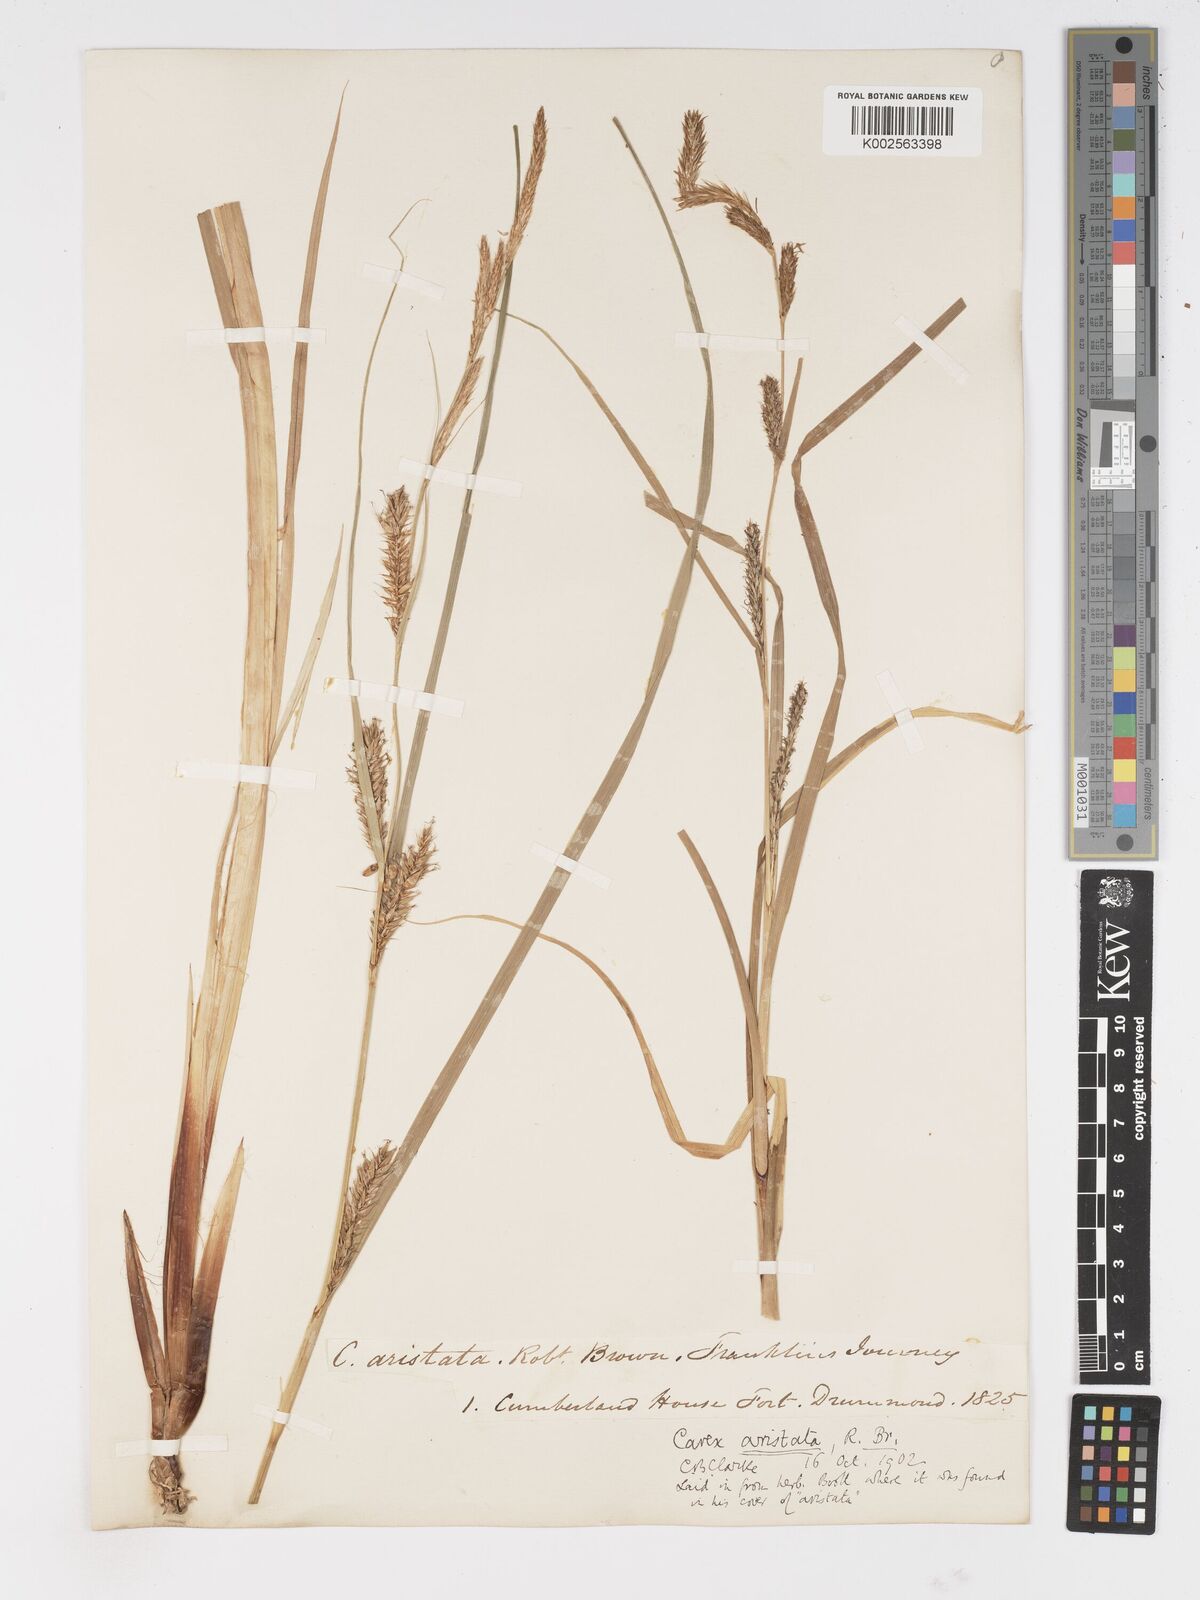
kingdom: Plantae
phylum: Tracheophyta
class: Liliopsida
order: Poales
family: Cyperaceae
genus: Carex
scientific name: Carex atherodes
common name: Wheat sedge
